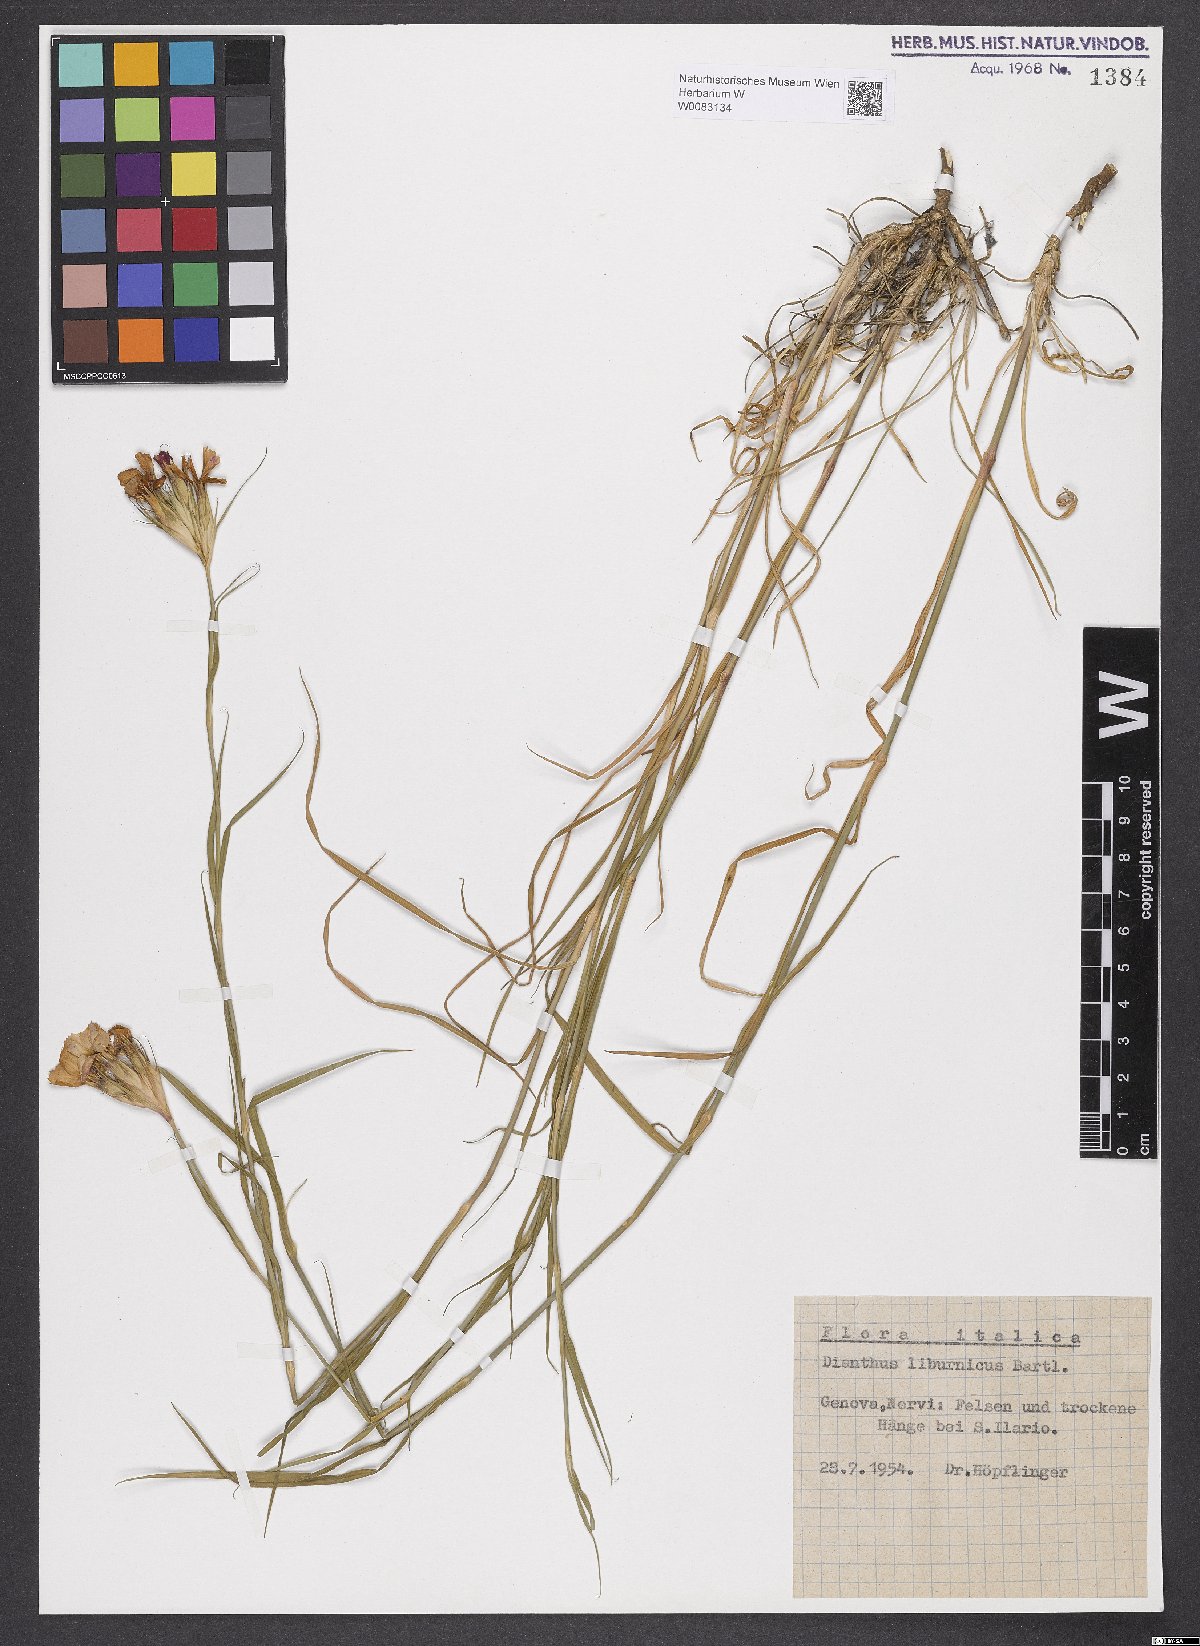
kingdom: Plantae
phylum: Tracheophyta
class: Magnoliopsida
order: Caryophyllales
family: Caryophyllaceae
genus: Dianthus
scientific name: Dianthus balbisii
